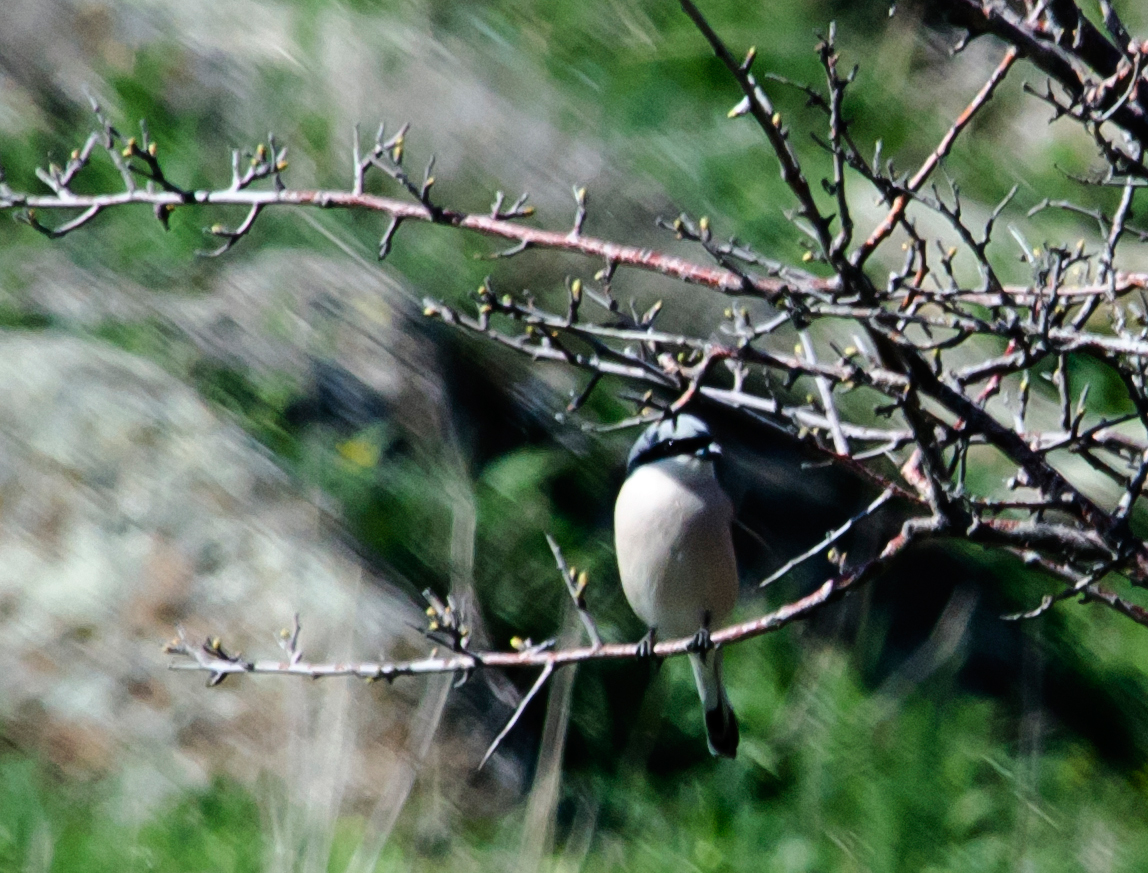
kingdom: Animalia
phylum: Chordata
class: Aves
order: Passeriformes
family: Laniidae
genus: Lanius
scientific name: Lanius collurio
